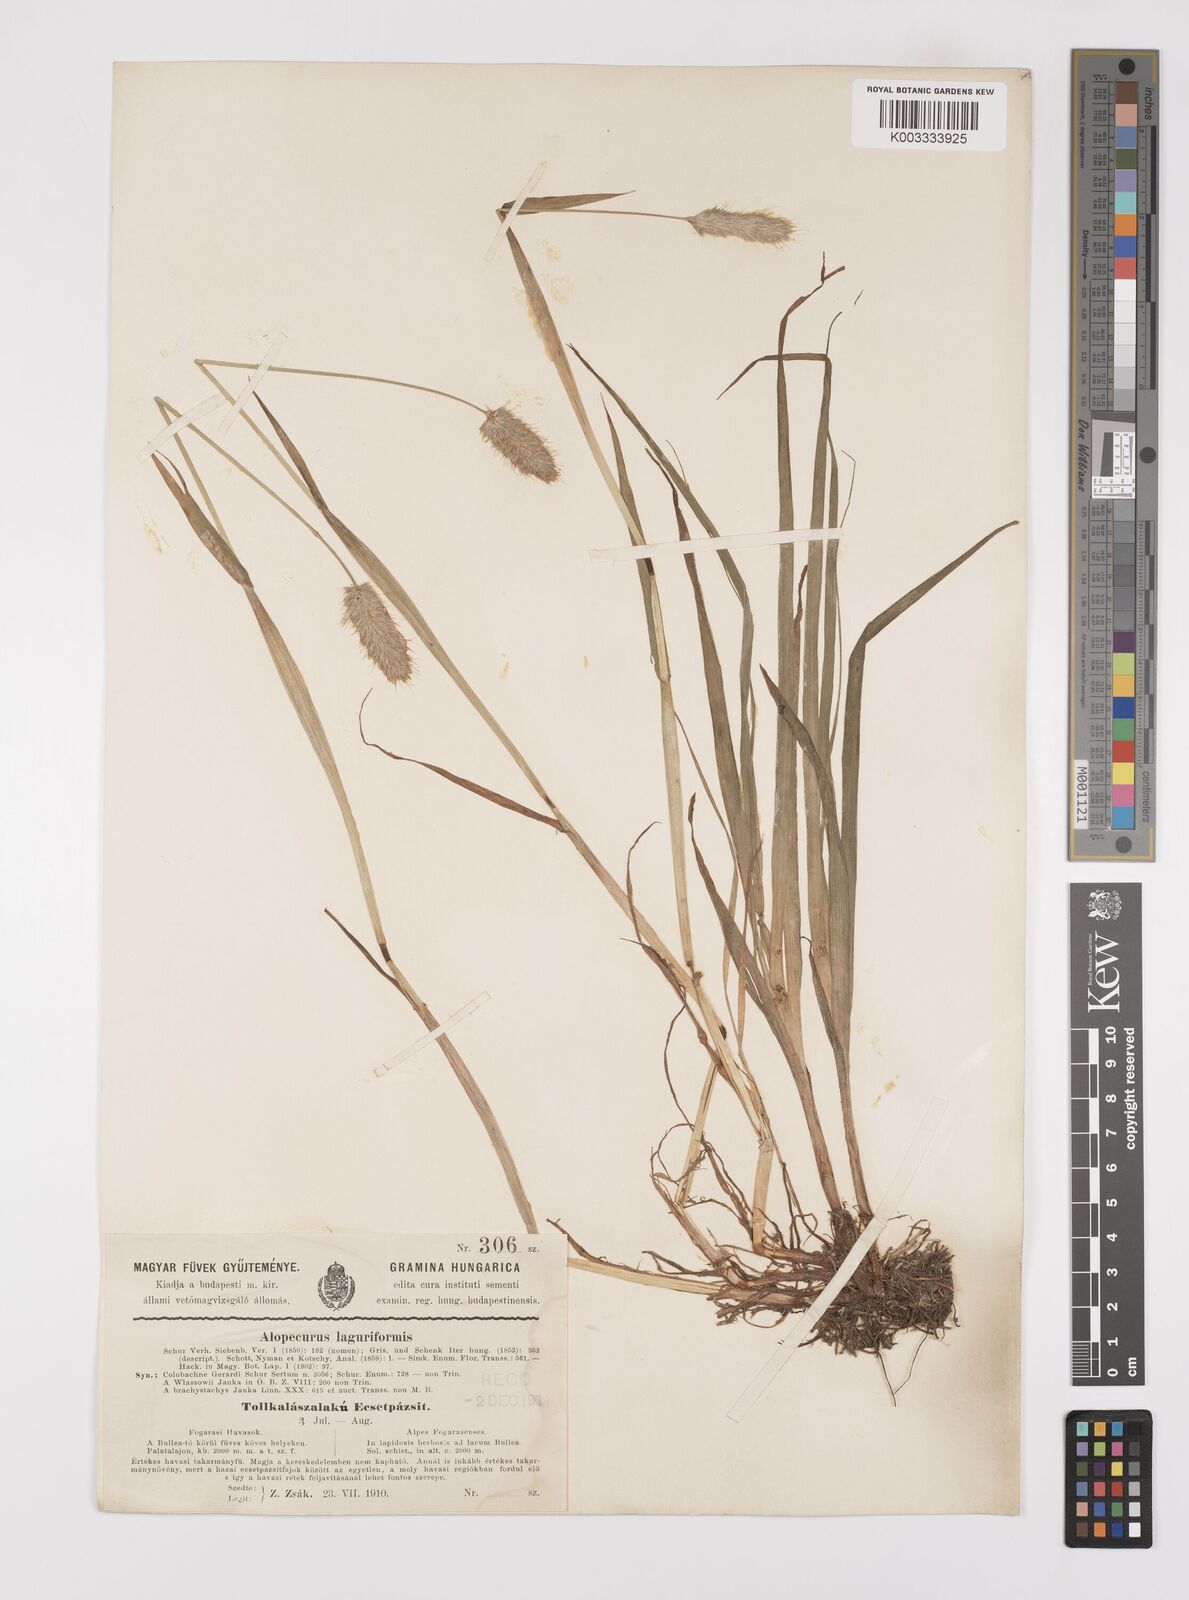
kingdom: Plantae
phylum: Tracheophyta
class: Liliopsida
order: Poales
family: Poaceae
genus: Alopecurus
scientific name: Alopecurus pratensis
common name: Meadow foxtail
